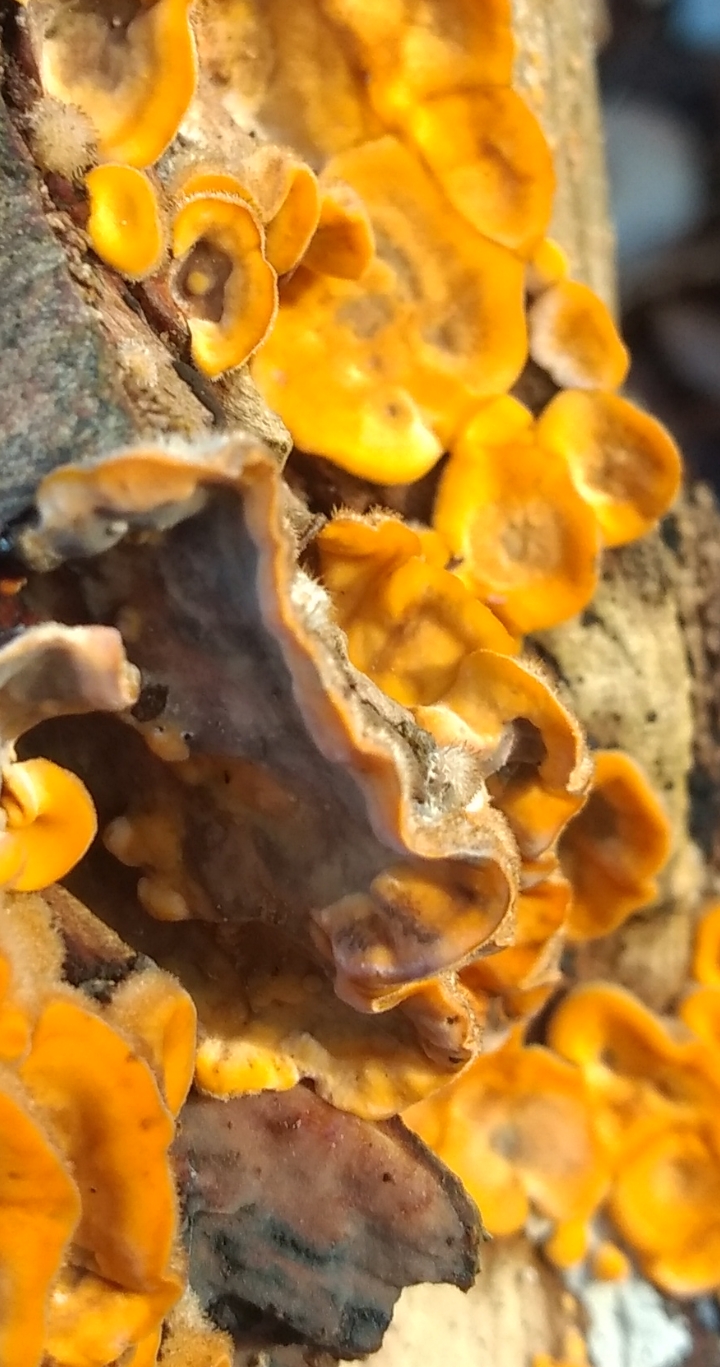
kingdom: Fungi
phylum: Basidiomycota
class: Agaricomycetes
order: Russulales
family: Stereaceae
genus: Stereum
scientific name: Stereum hirsutum
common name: håret lædersvamp
